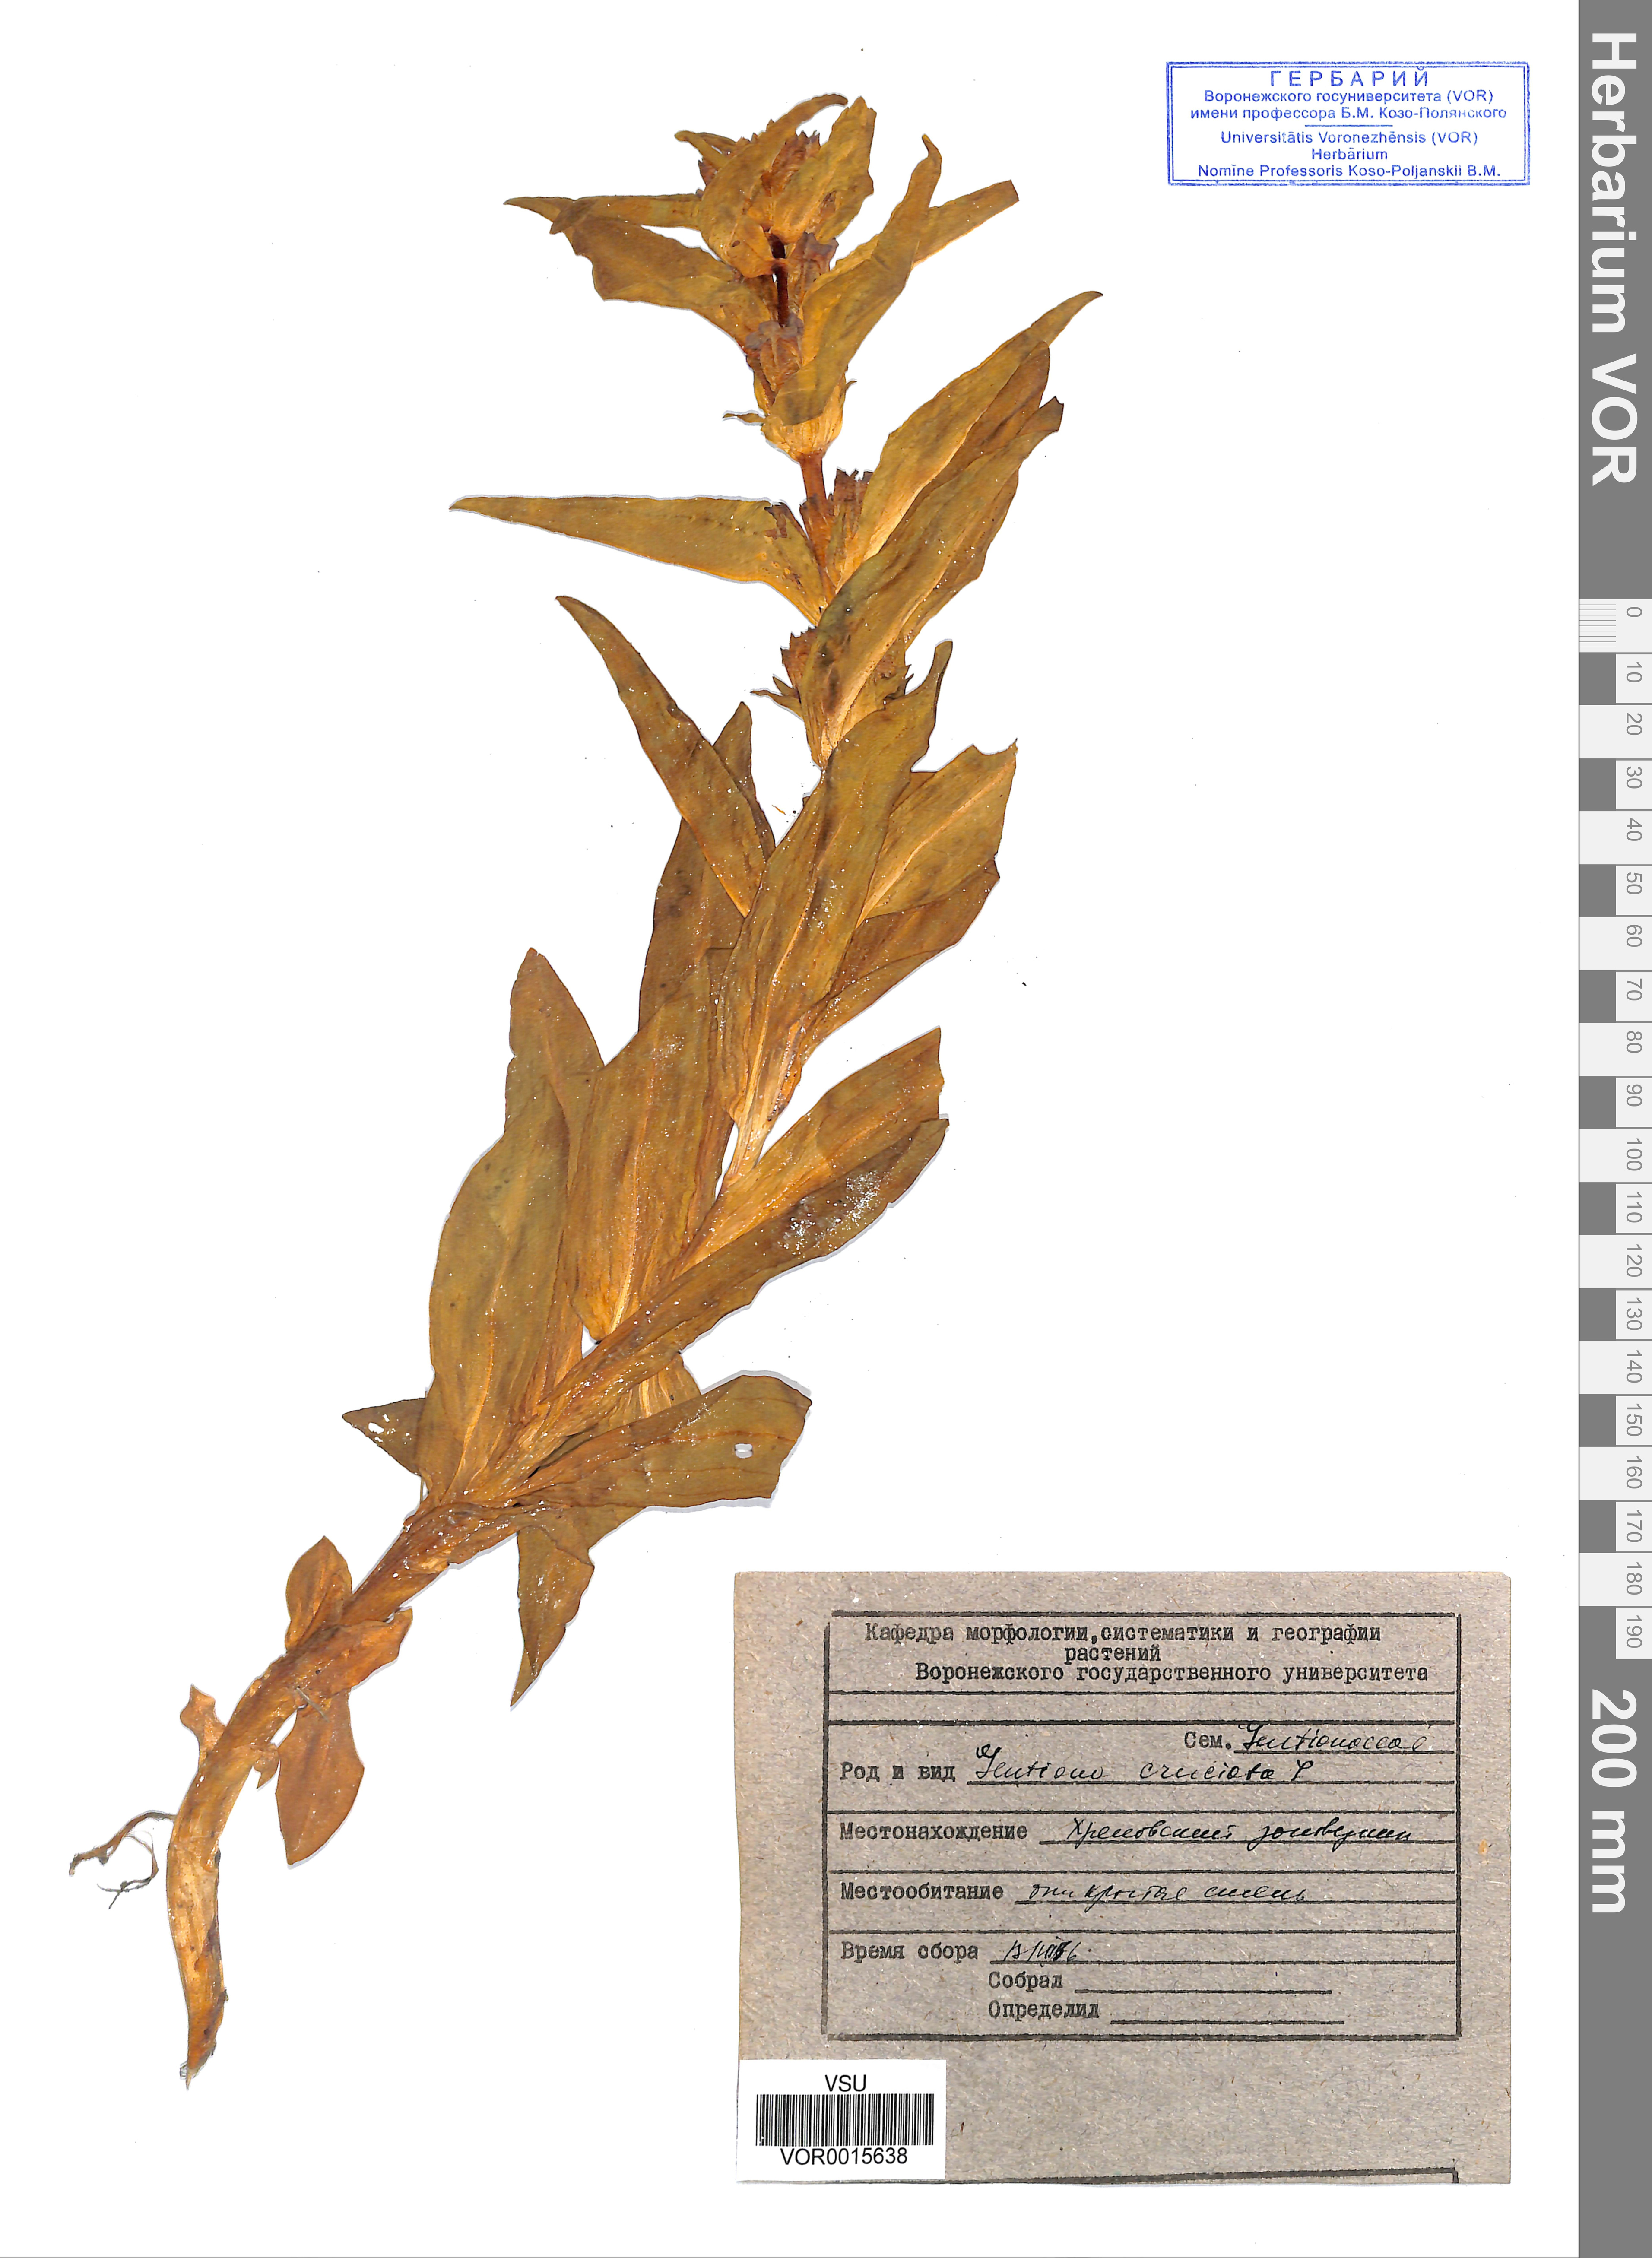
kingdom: Plantae
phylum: Tracheophyta
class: Magnoliopsida
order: Gentianales
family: Gentianaceae
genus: Gentiana
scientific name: Gentiana cruciata
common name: Cross gentian
